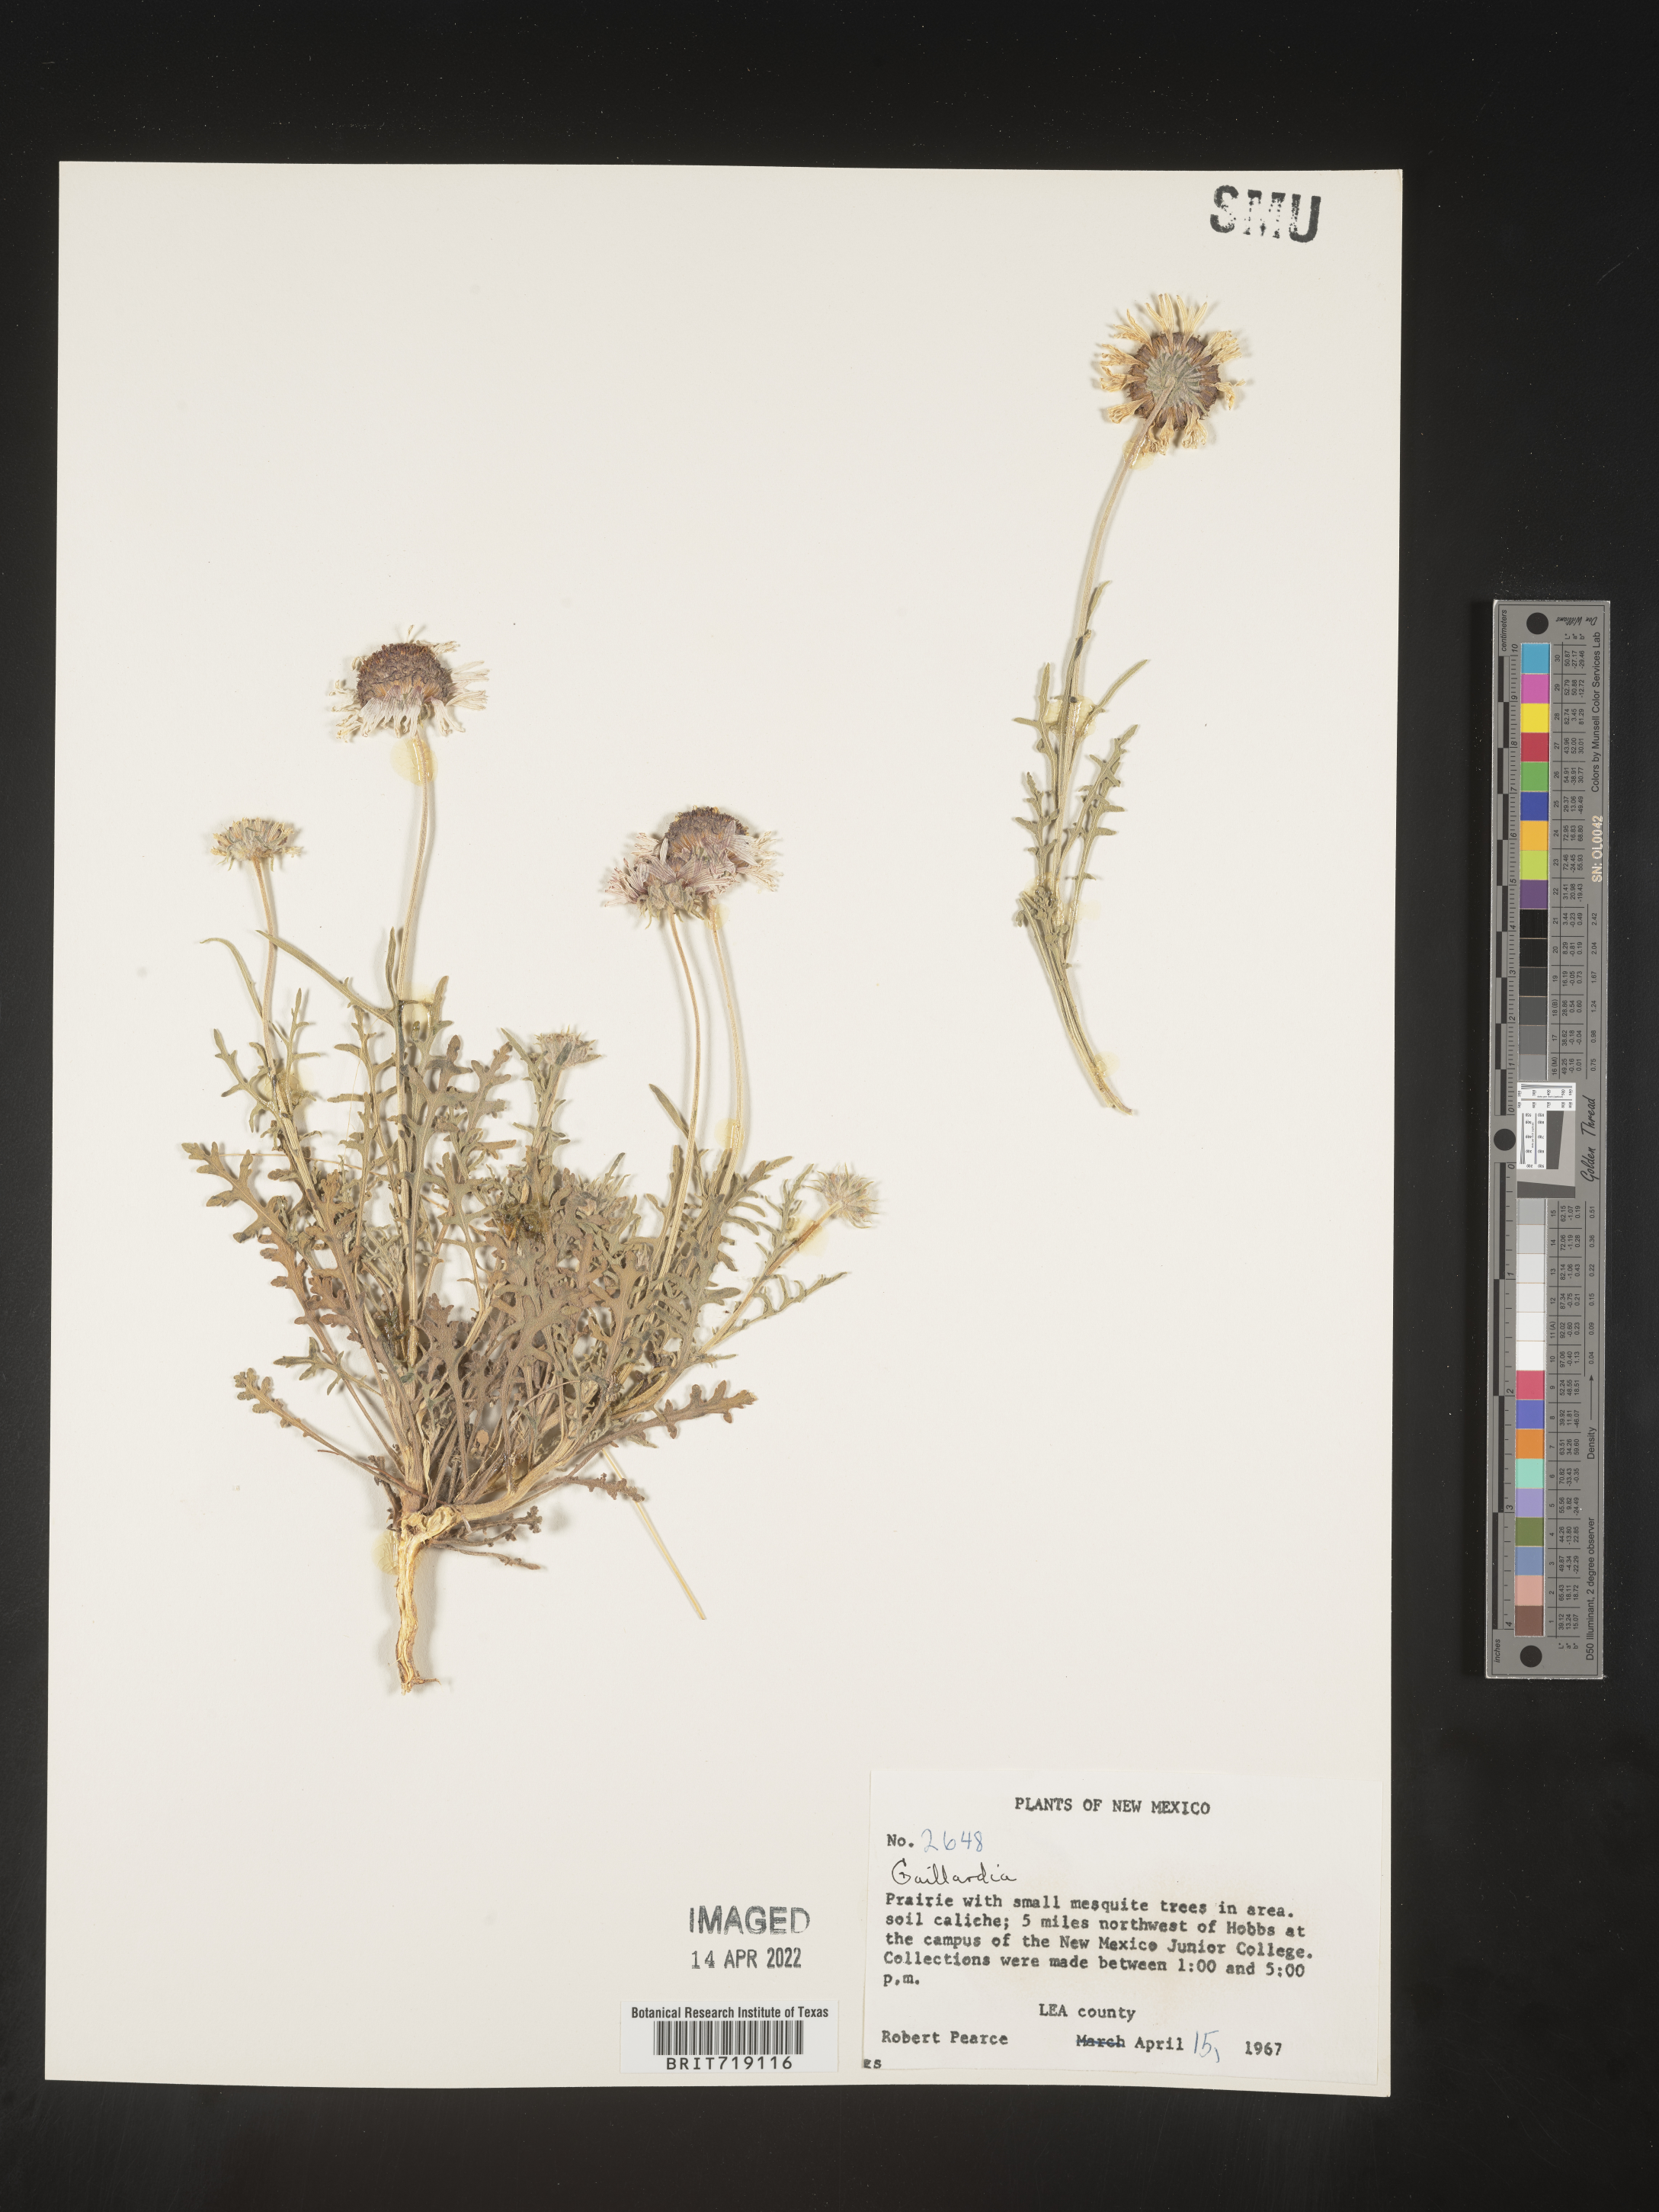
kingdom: Plantae
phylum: Tracheophyta
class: Magnoliopsida
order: Asterales
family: Asteraceae
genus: Gaillardia
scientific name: Gaillardia
